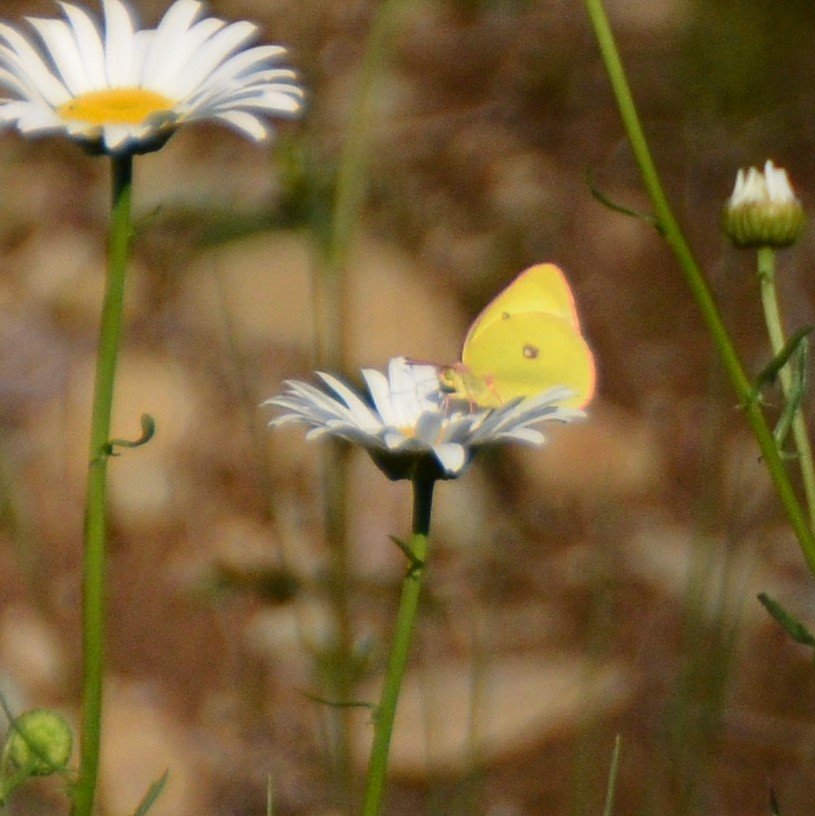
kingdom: Animalia
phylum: Arthropoda
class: Insecta
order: Lepidoptera
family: Pieridae
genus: Colias
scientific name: Colias interior
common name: Pink-edged Sulphur
